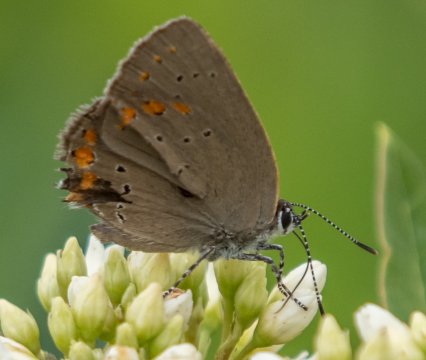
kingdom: Animalia
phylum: Arthropoda
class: Insecta
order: Lepidoptera
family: Lycaenidae
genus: Harkenclenus
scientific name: Harkenclenus titus
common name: Coral Hairstreak
